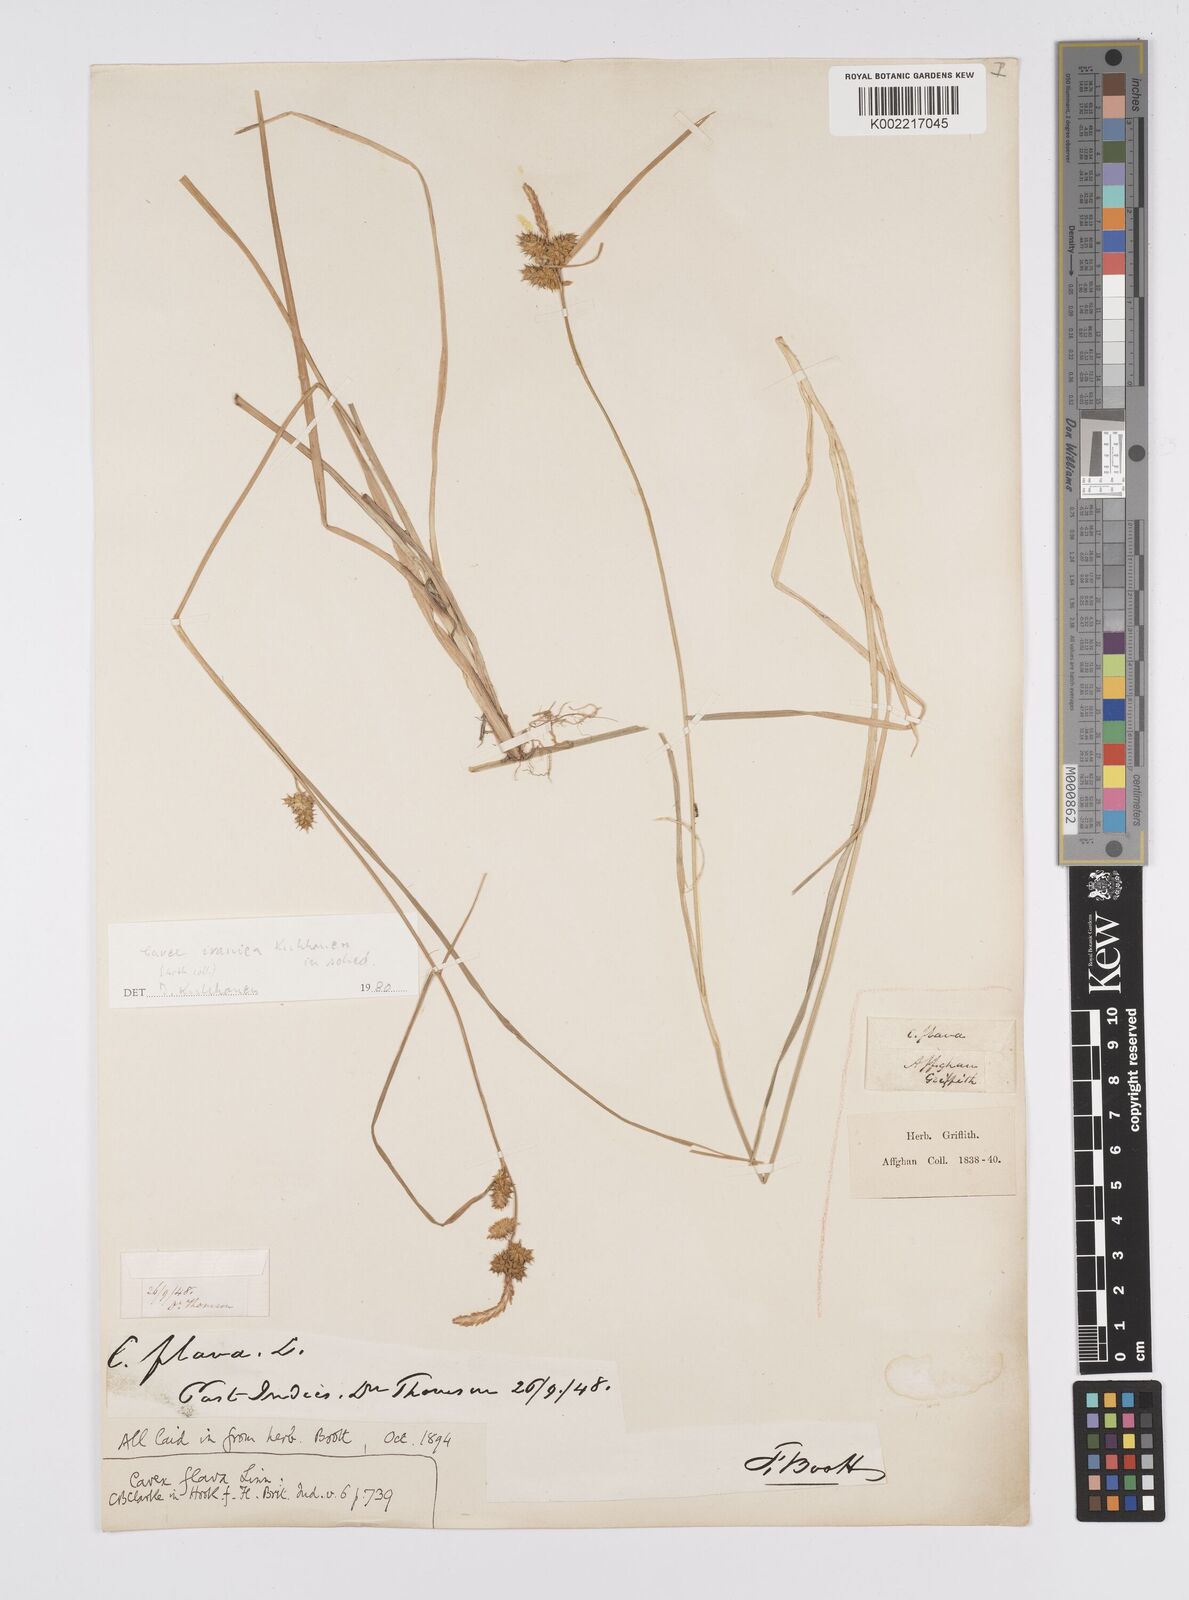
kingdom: Plantae
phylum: Tracheophyta
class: Liliopsida
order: Poales
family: Cyperaceae
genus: Carex
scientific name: Carex
